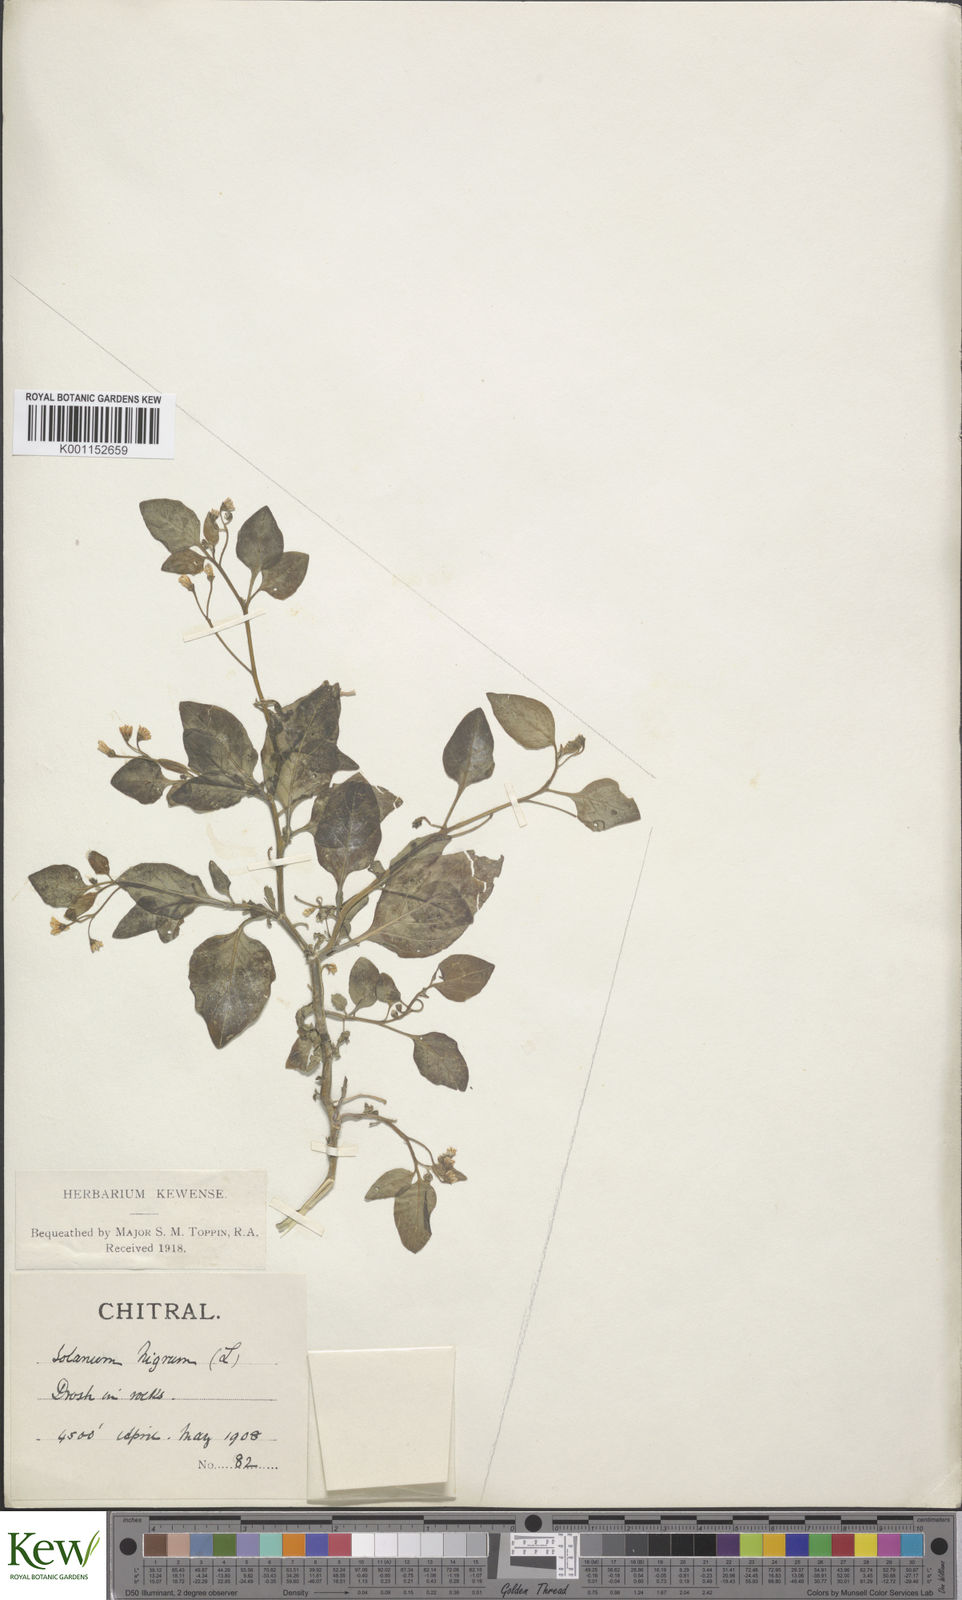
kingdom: Plantae
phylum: Tracheophyta
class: Magnoliopsida
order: Solanales
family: Solanaceae
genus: Solanum
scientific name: Solanum nigrum
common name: Black nightshade
